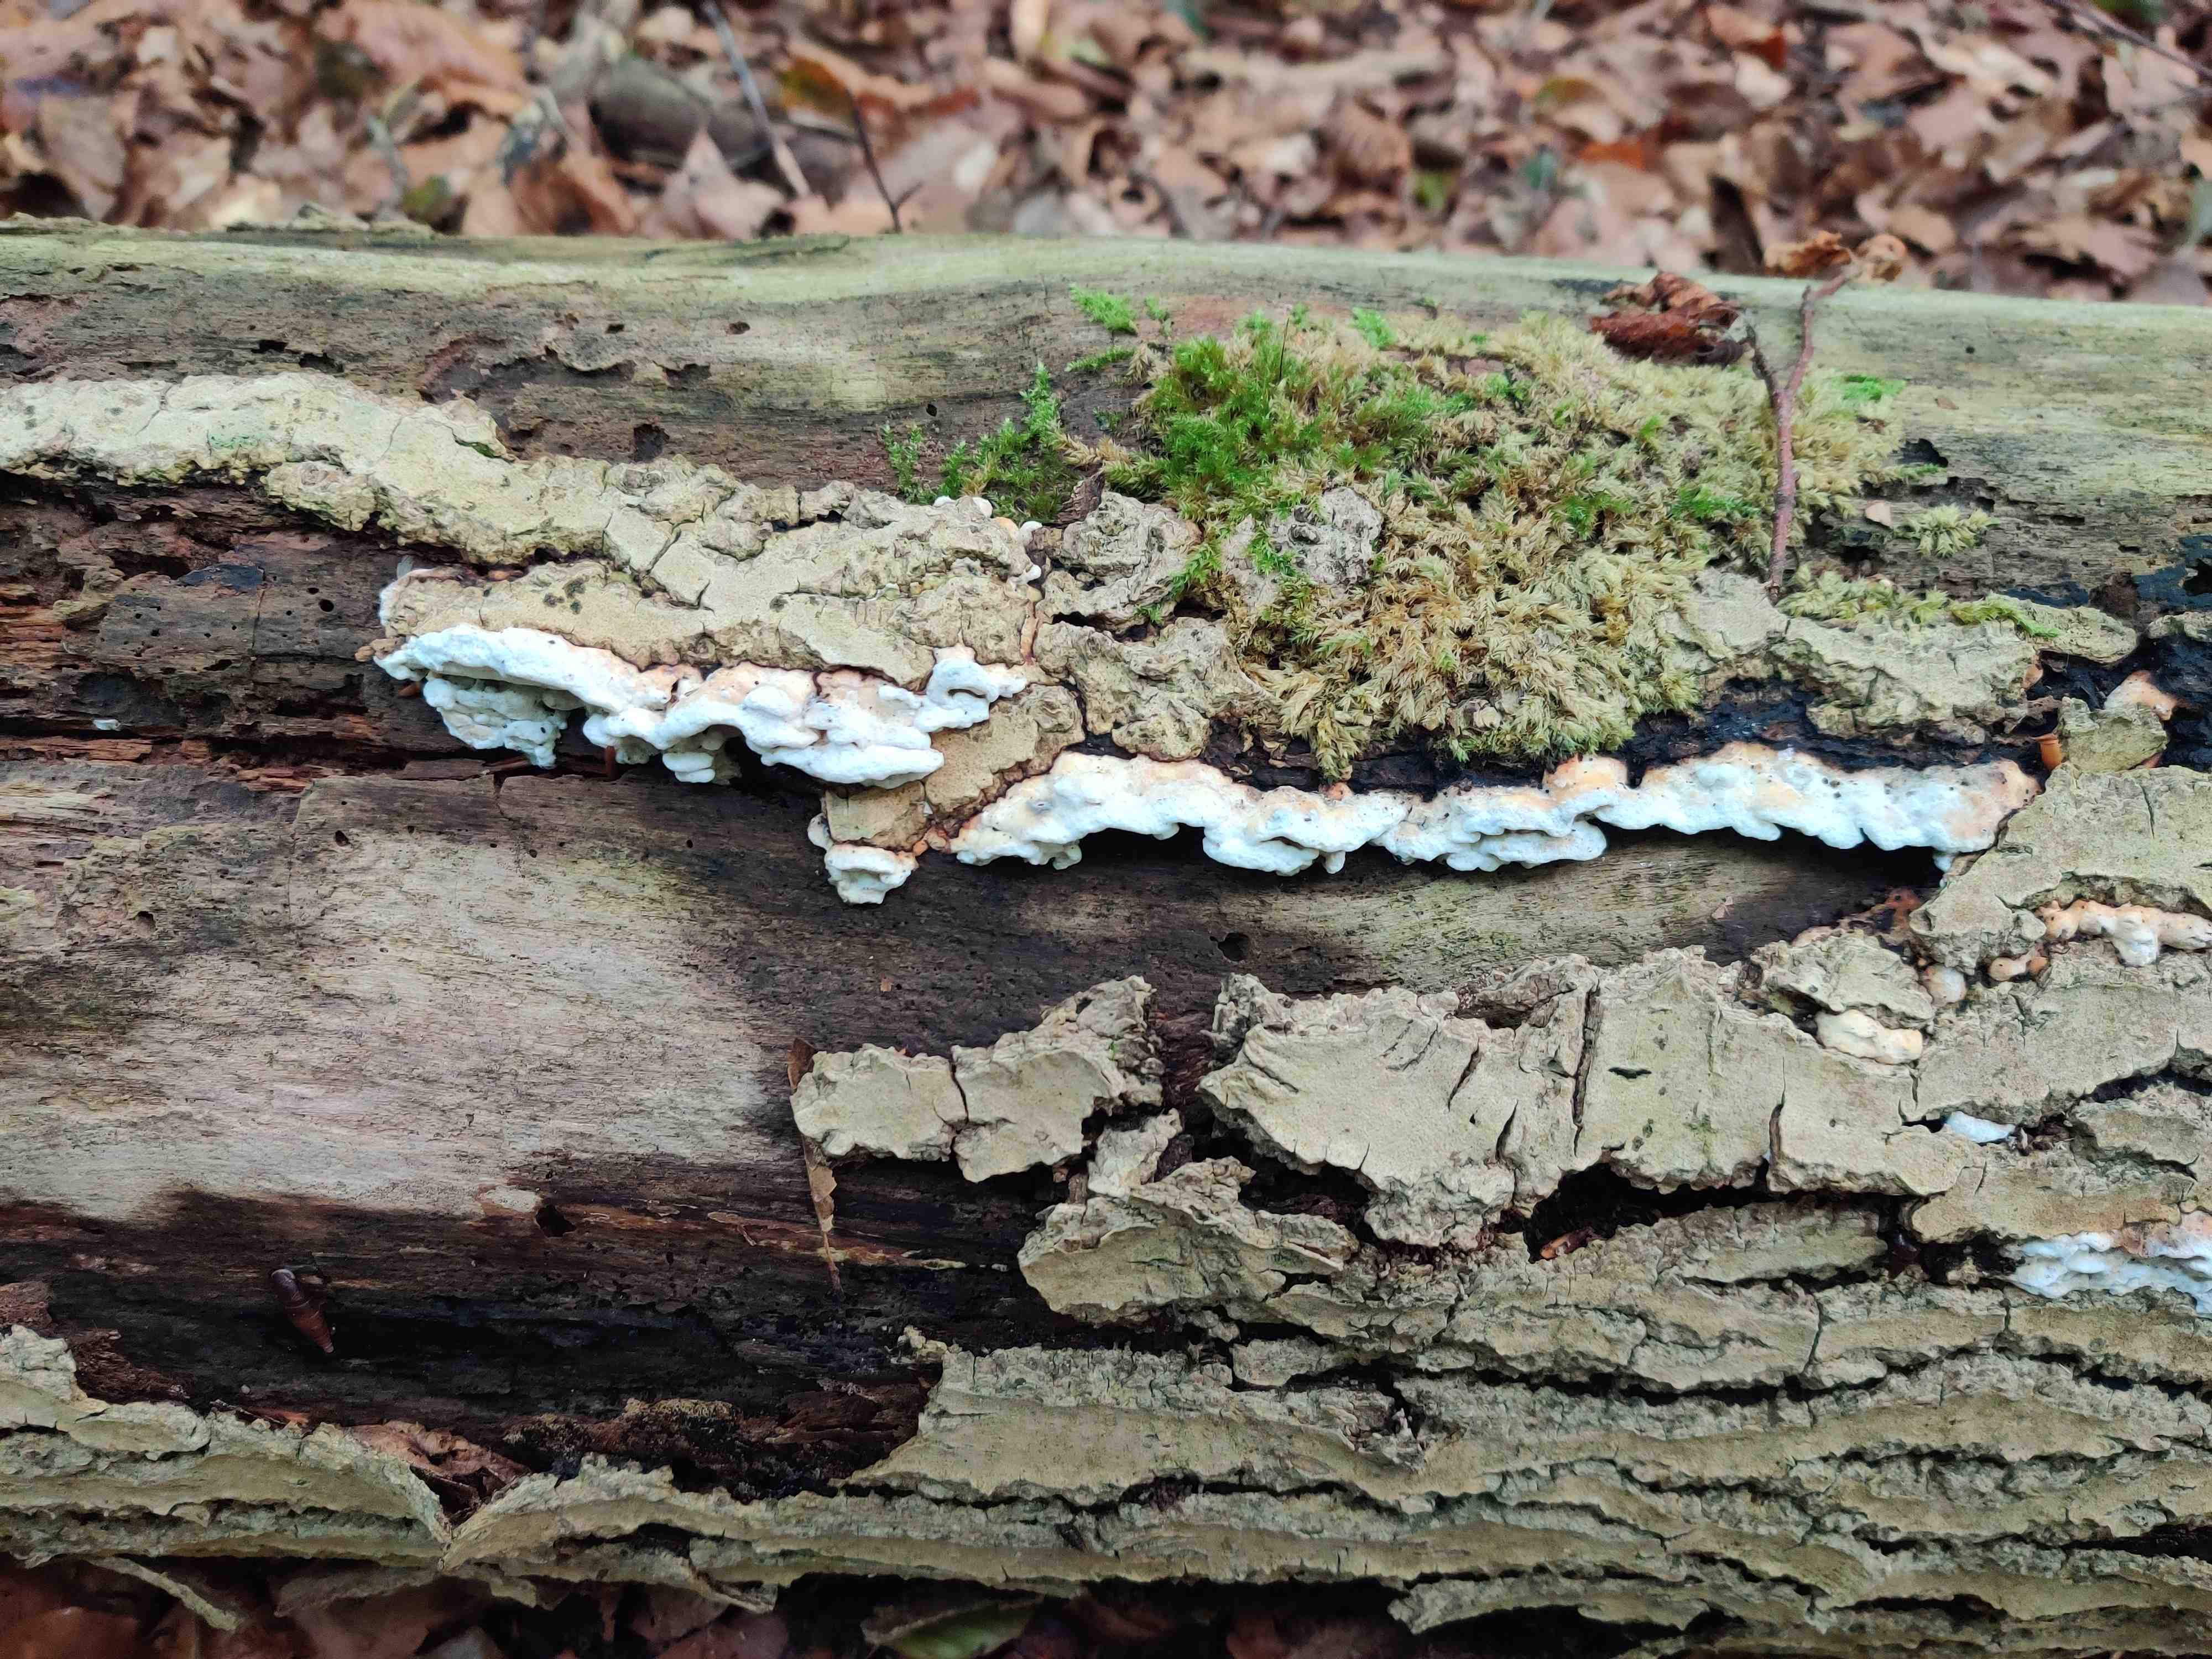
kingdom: Fungi
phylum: Basidiomycota
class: Agaricomycetes
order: Polyporales
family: Incrustoporiaceae
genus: Skeletocutis
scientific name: Skeletocutis nemoralis
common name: stor krystalporesvamp
